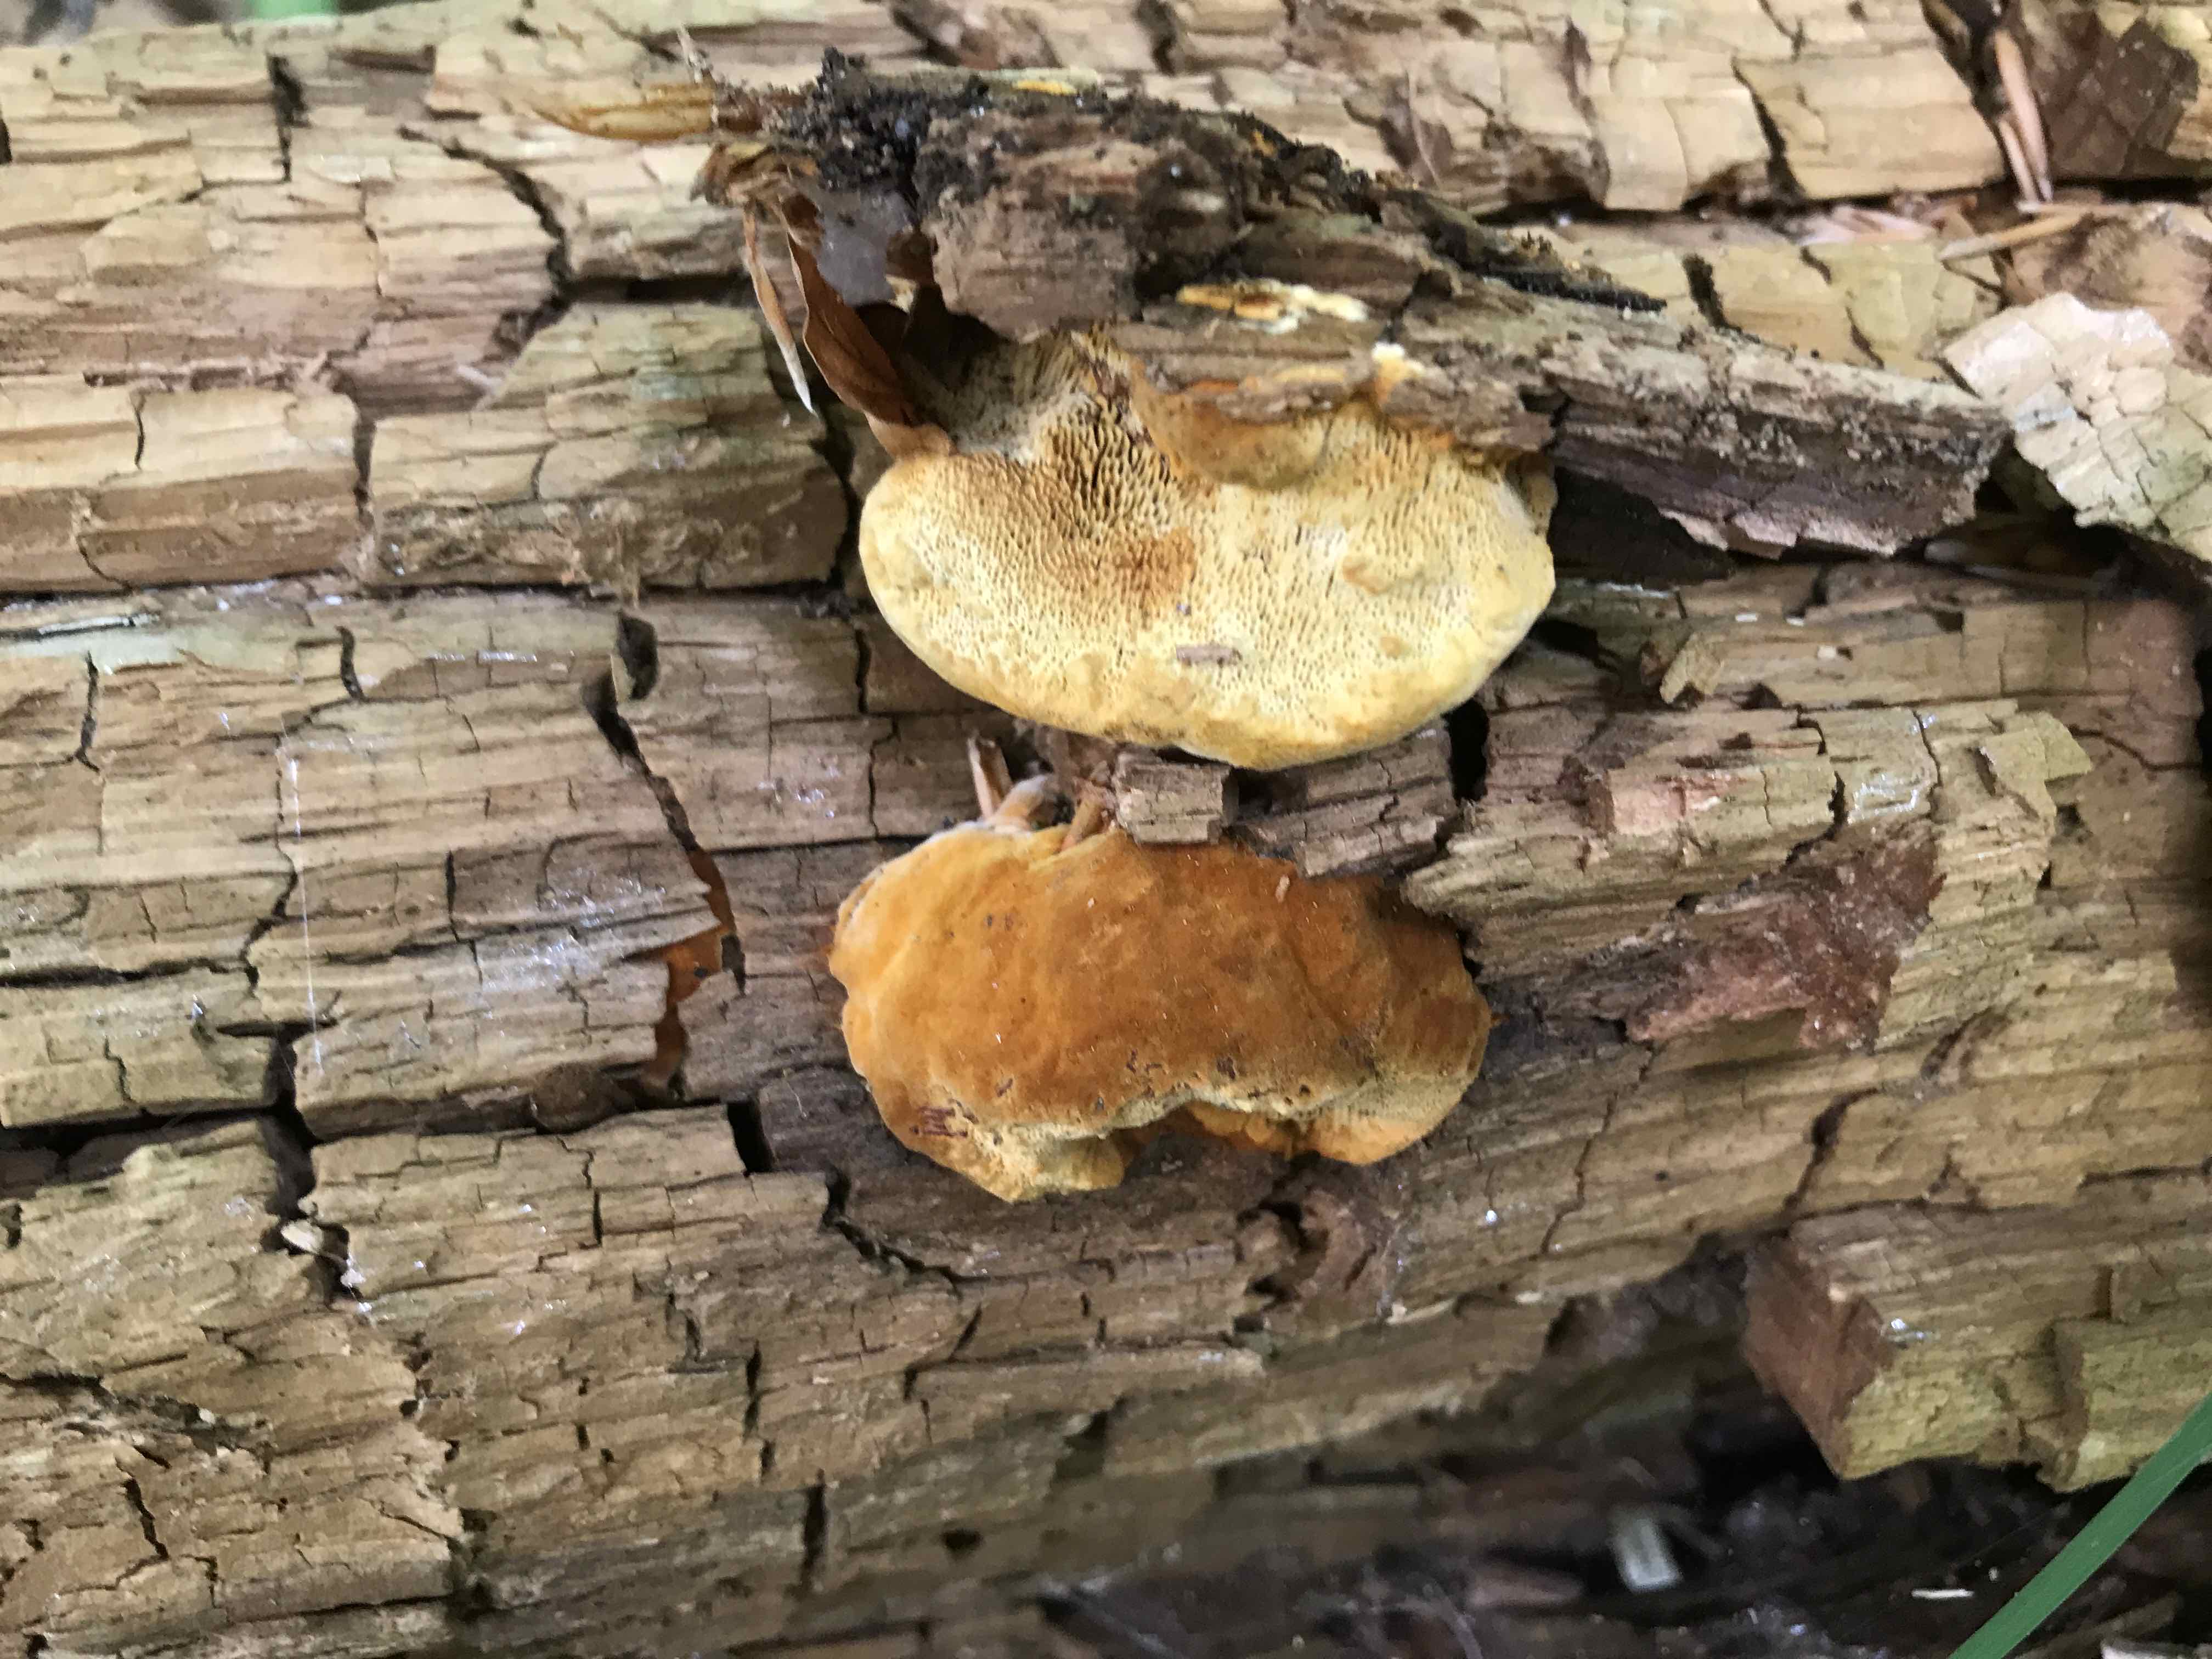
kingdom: Fungi
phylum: Basidiomycota
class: Agaricomycetes
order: Gloeophyllales
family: Gloeophyllaceae
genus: Gloeophyllum
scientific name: Gloeophyllum odoratum
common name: duftende korkhat
